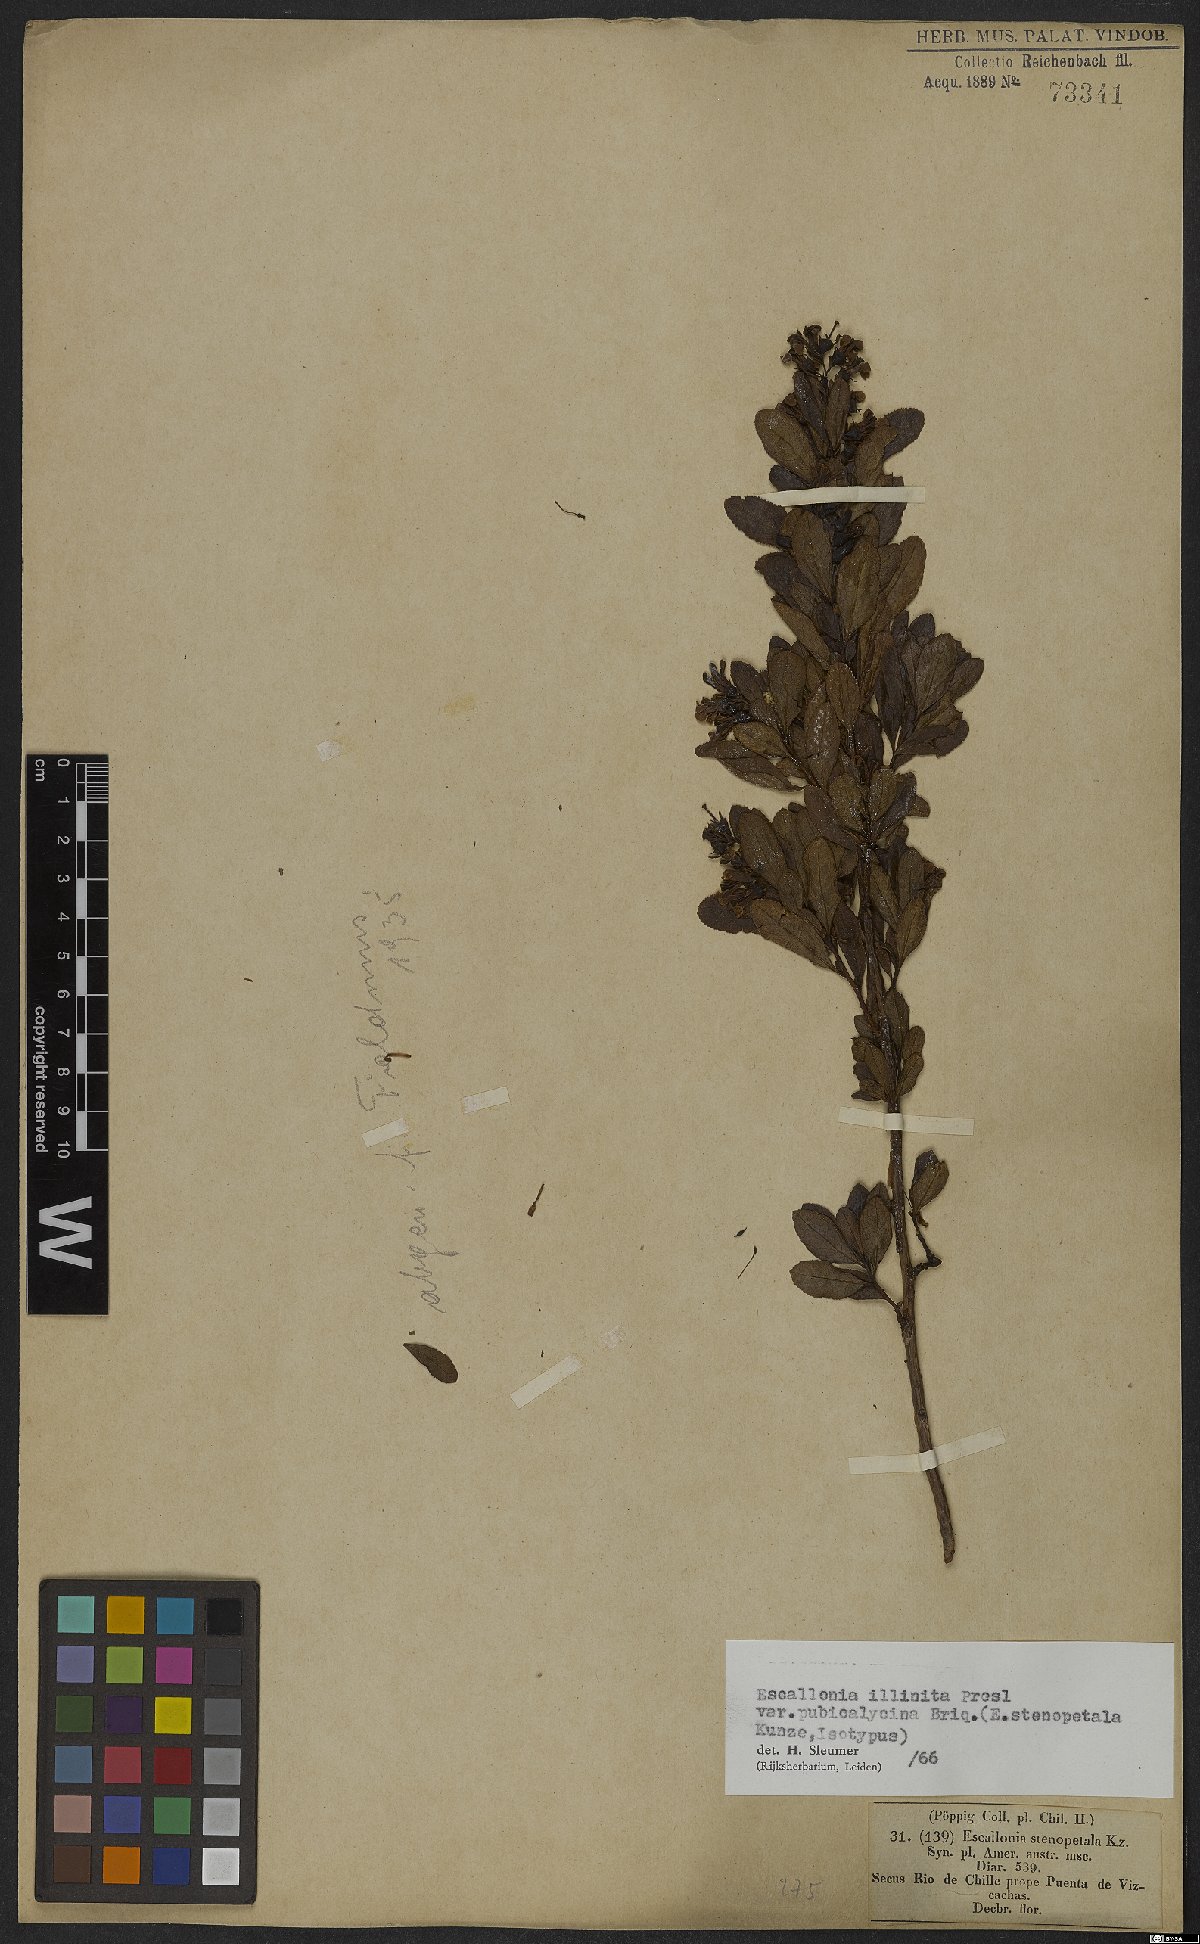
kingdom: Plantae
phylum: Tracheophyta
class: Magnoliopsida
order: Escalloniales
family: Escalloniaceae
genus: Escallonia
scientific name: Escallonia illinita
